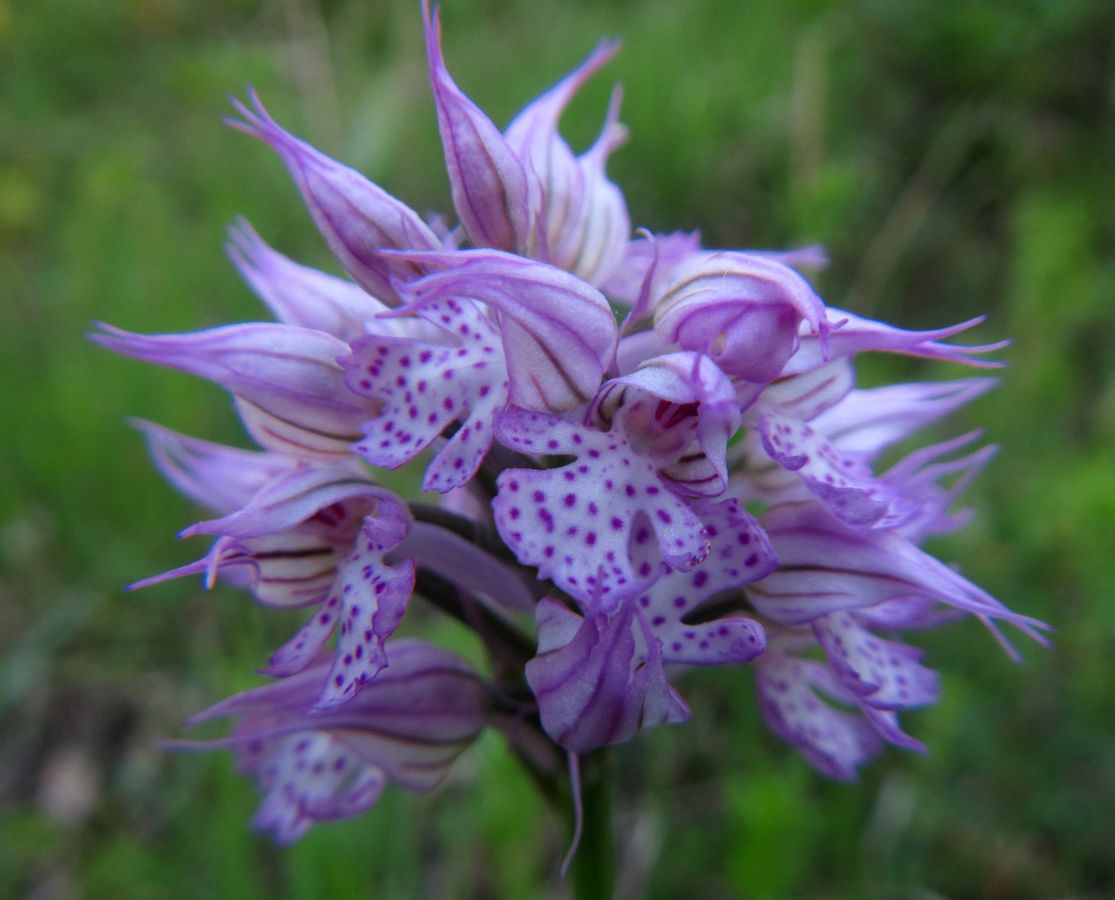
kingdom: Plantae
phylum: Tracheophyta
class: Liliopsida
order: Asparagales
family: Orchidaceae
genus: Neotinea
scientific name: Neotinea tridentata
